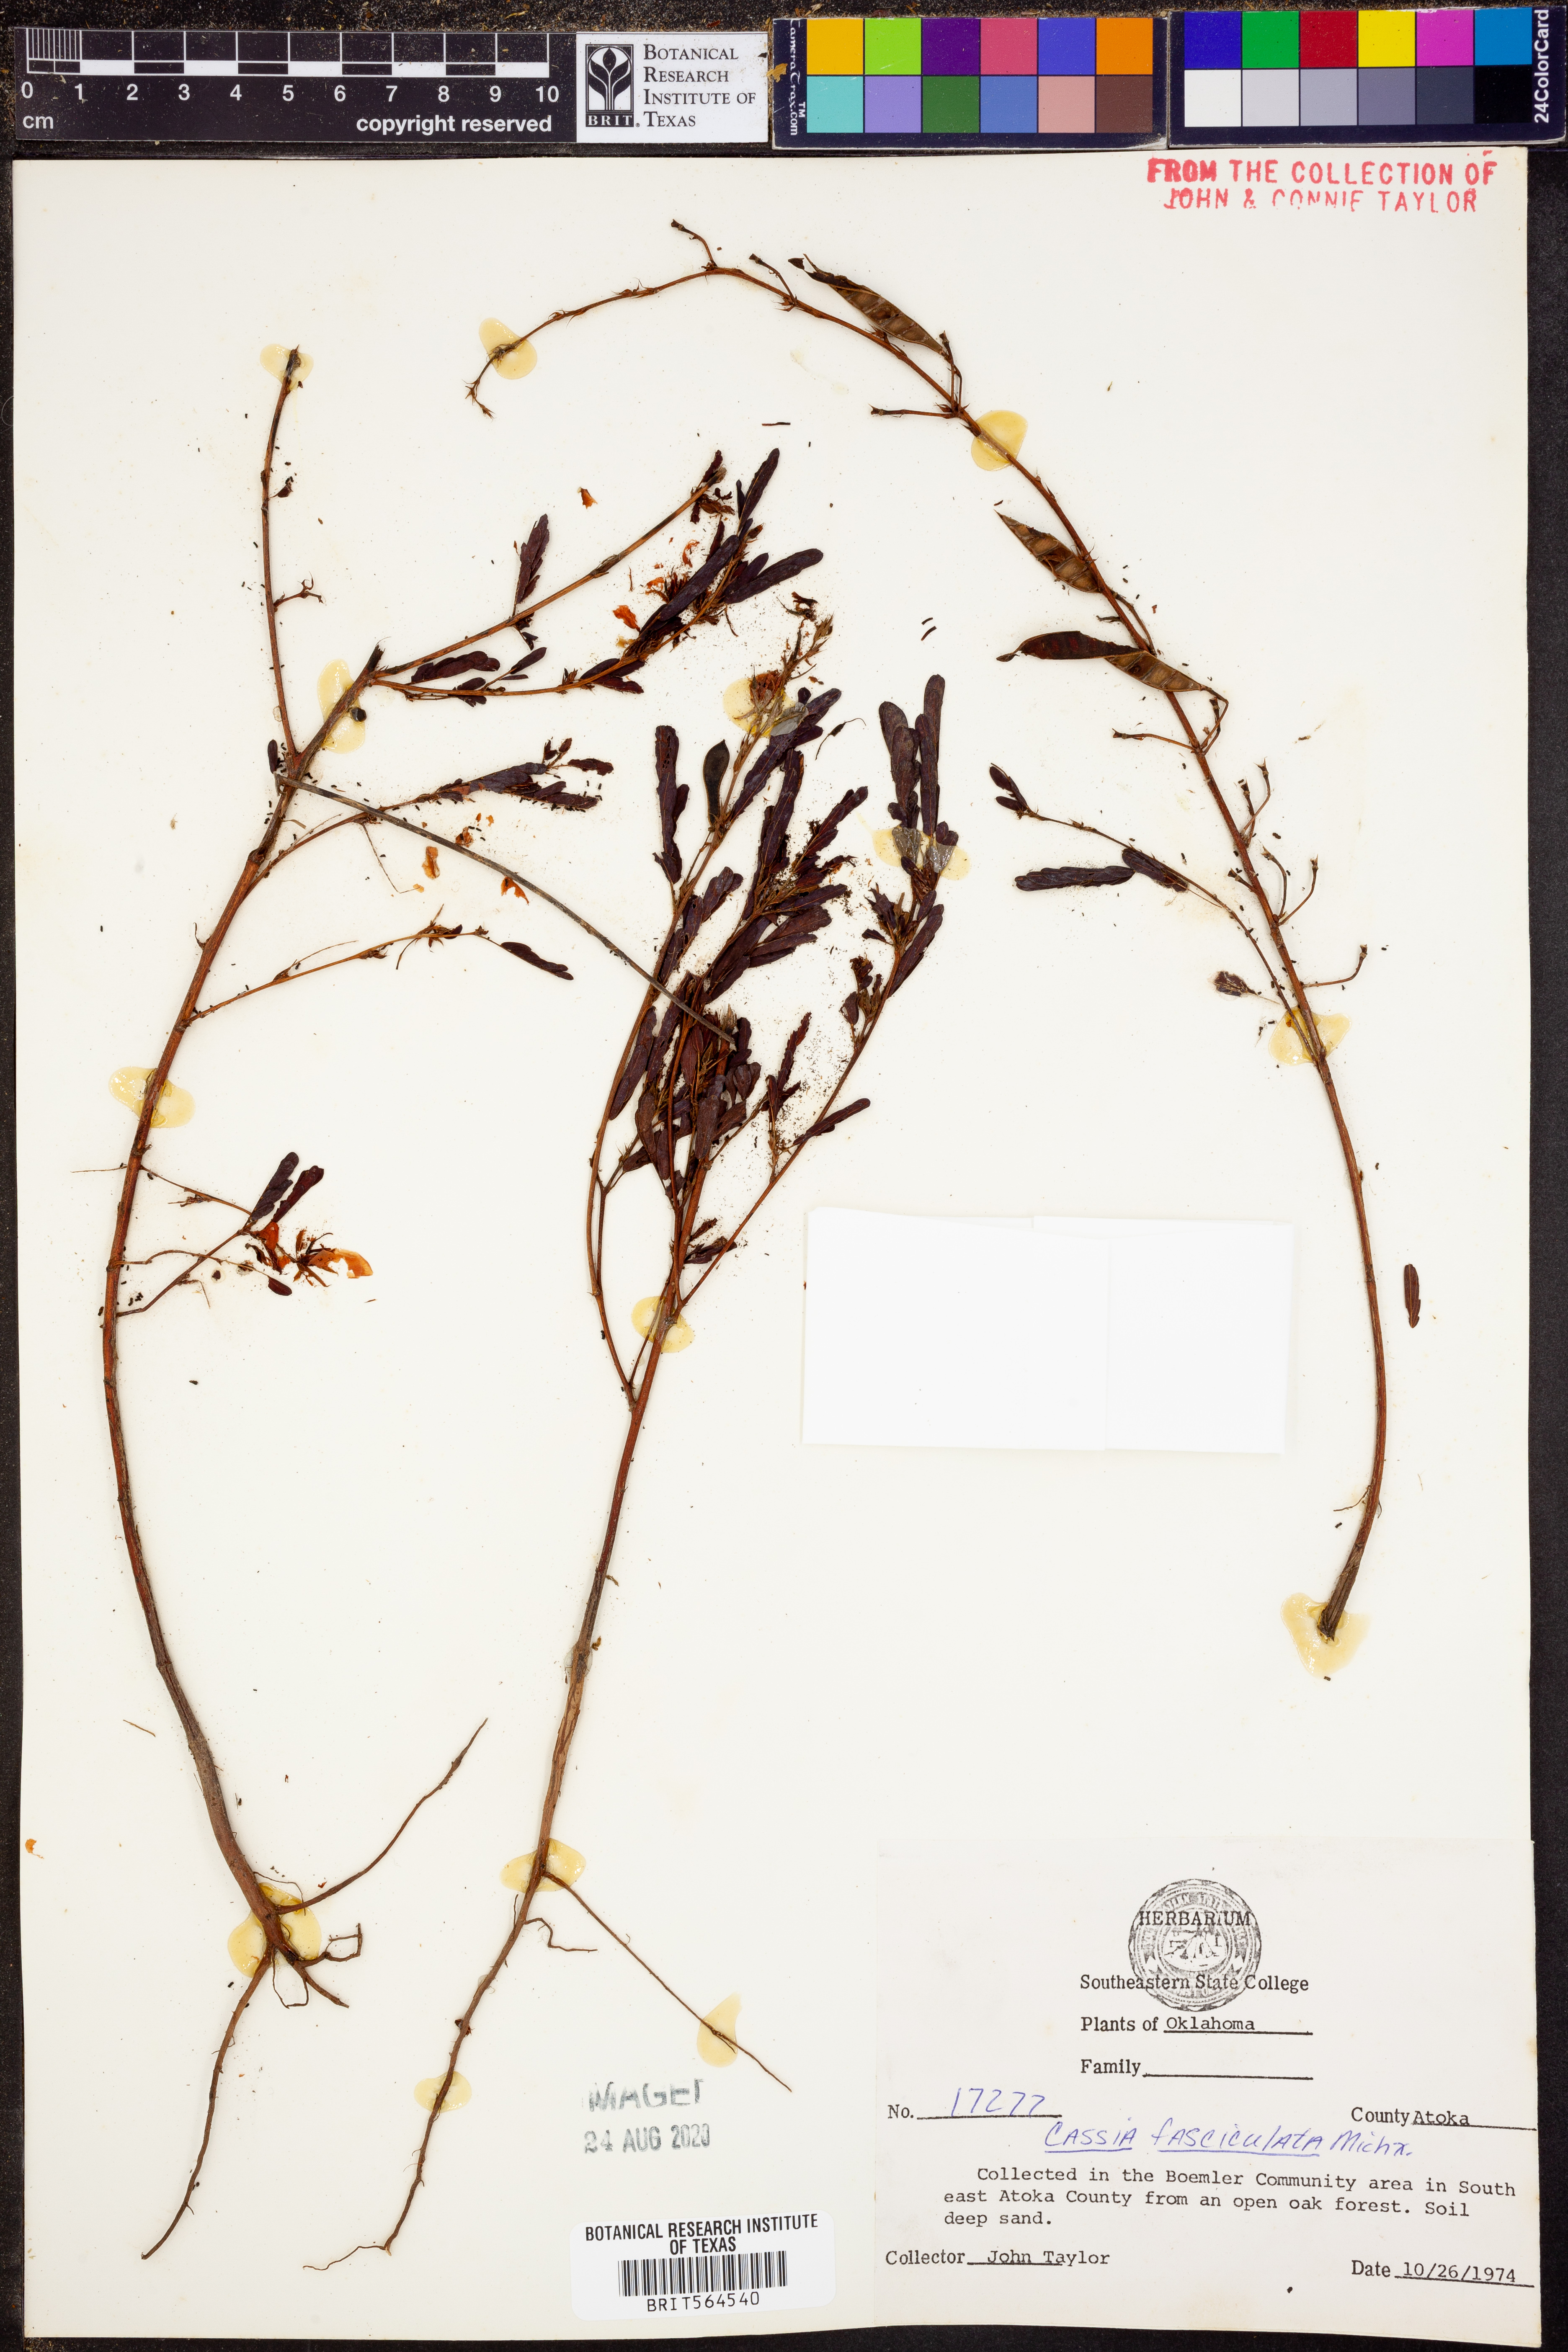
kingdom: Plantae
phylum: Tracheophyta
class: Magnoliopsida
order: Fabales
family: Fabaceae
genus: Chamaecrista
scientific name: Chamaecrista fasciculata
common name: Golden cassia
